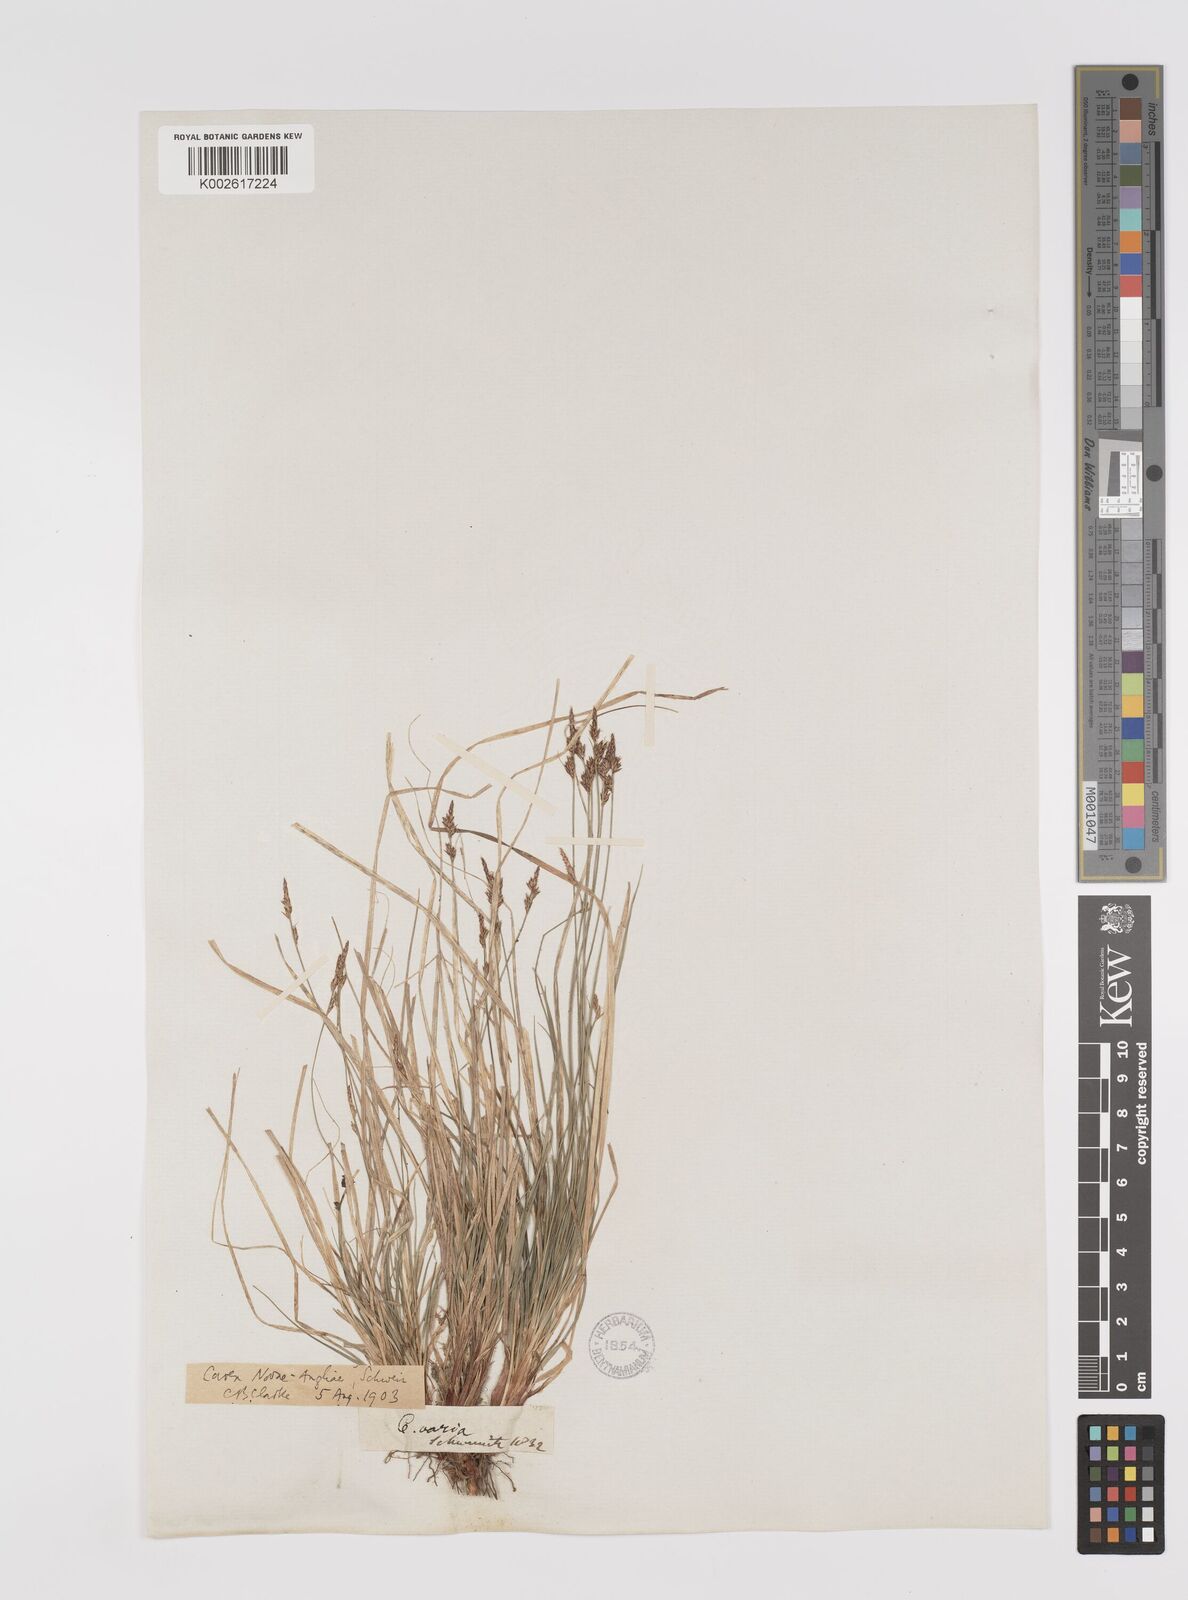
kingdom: Plantae
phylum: Tracheophyta
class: Liliopsida
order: Poales
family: Cyperaceae
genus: Carex
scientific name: Carex albicans
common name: Bellow-beaked sedge
